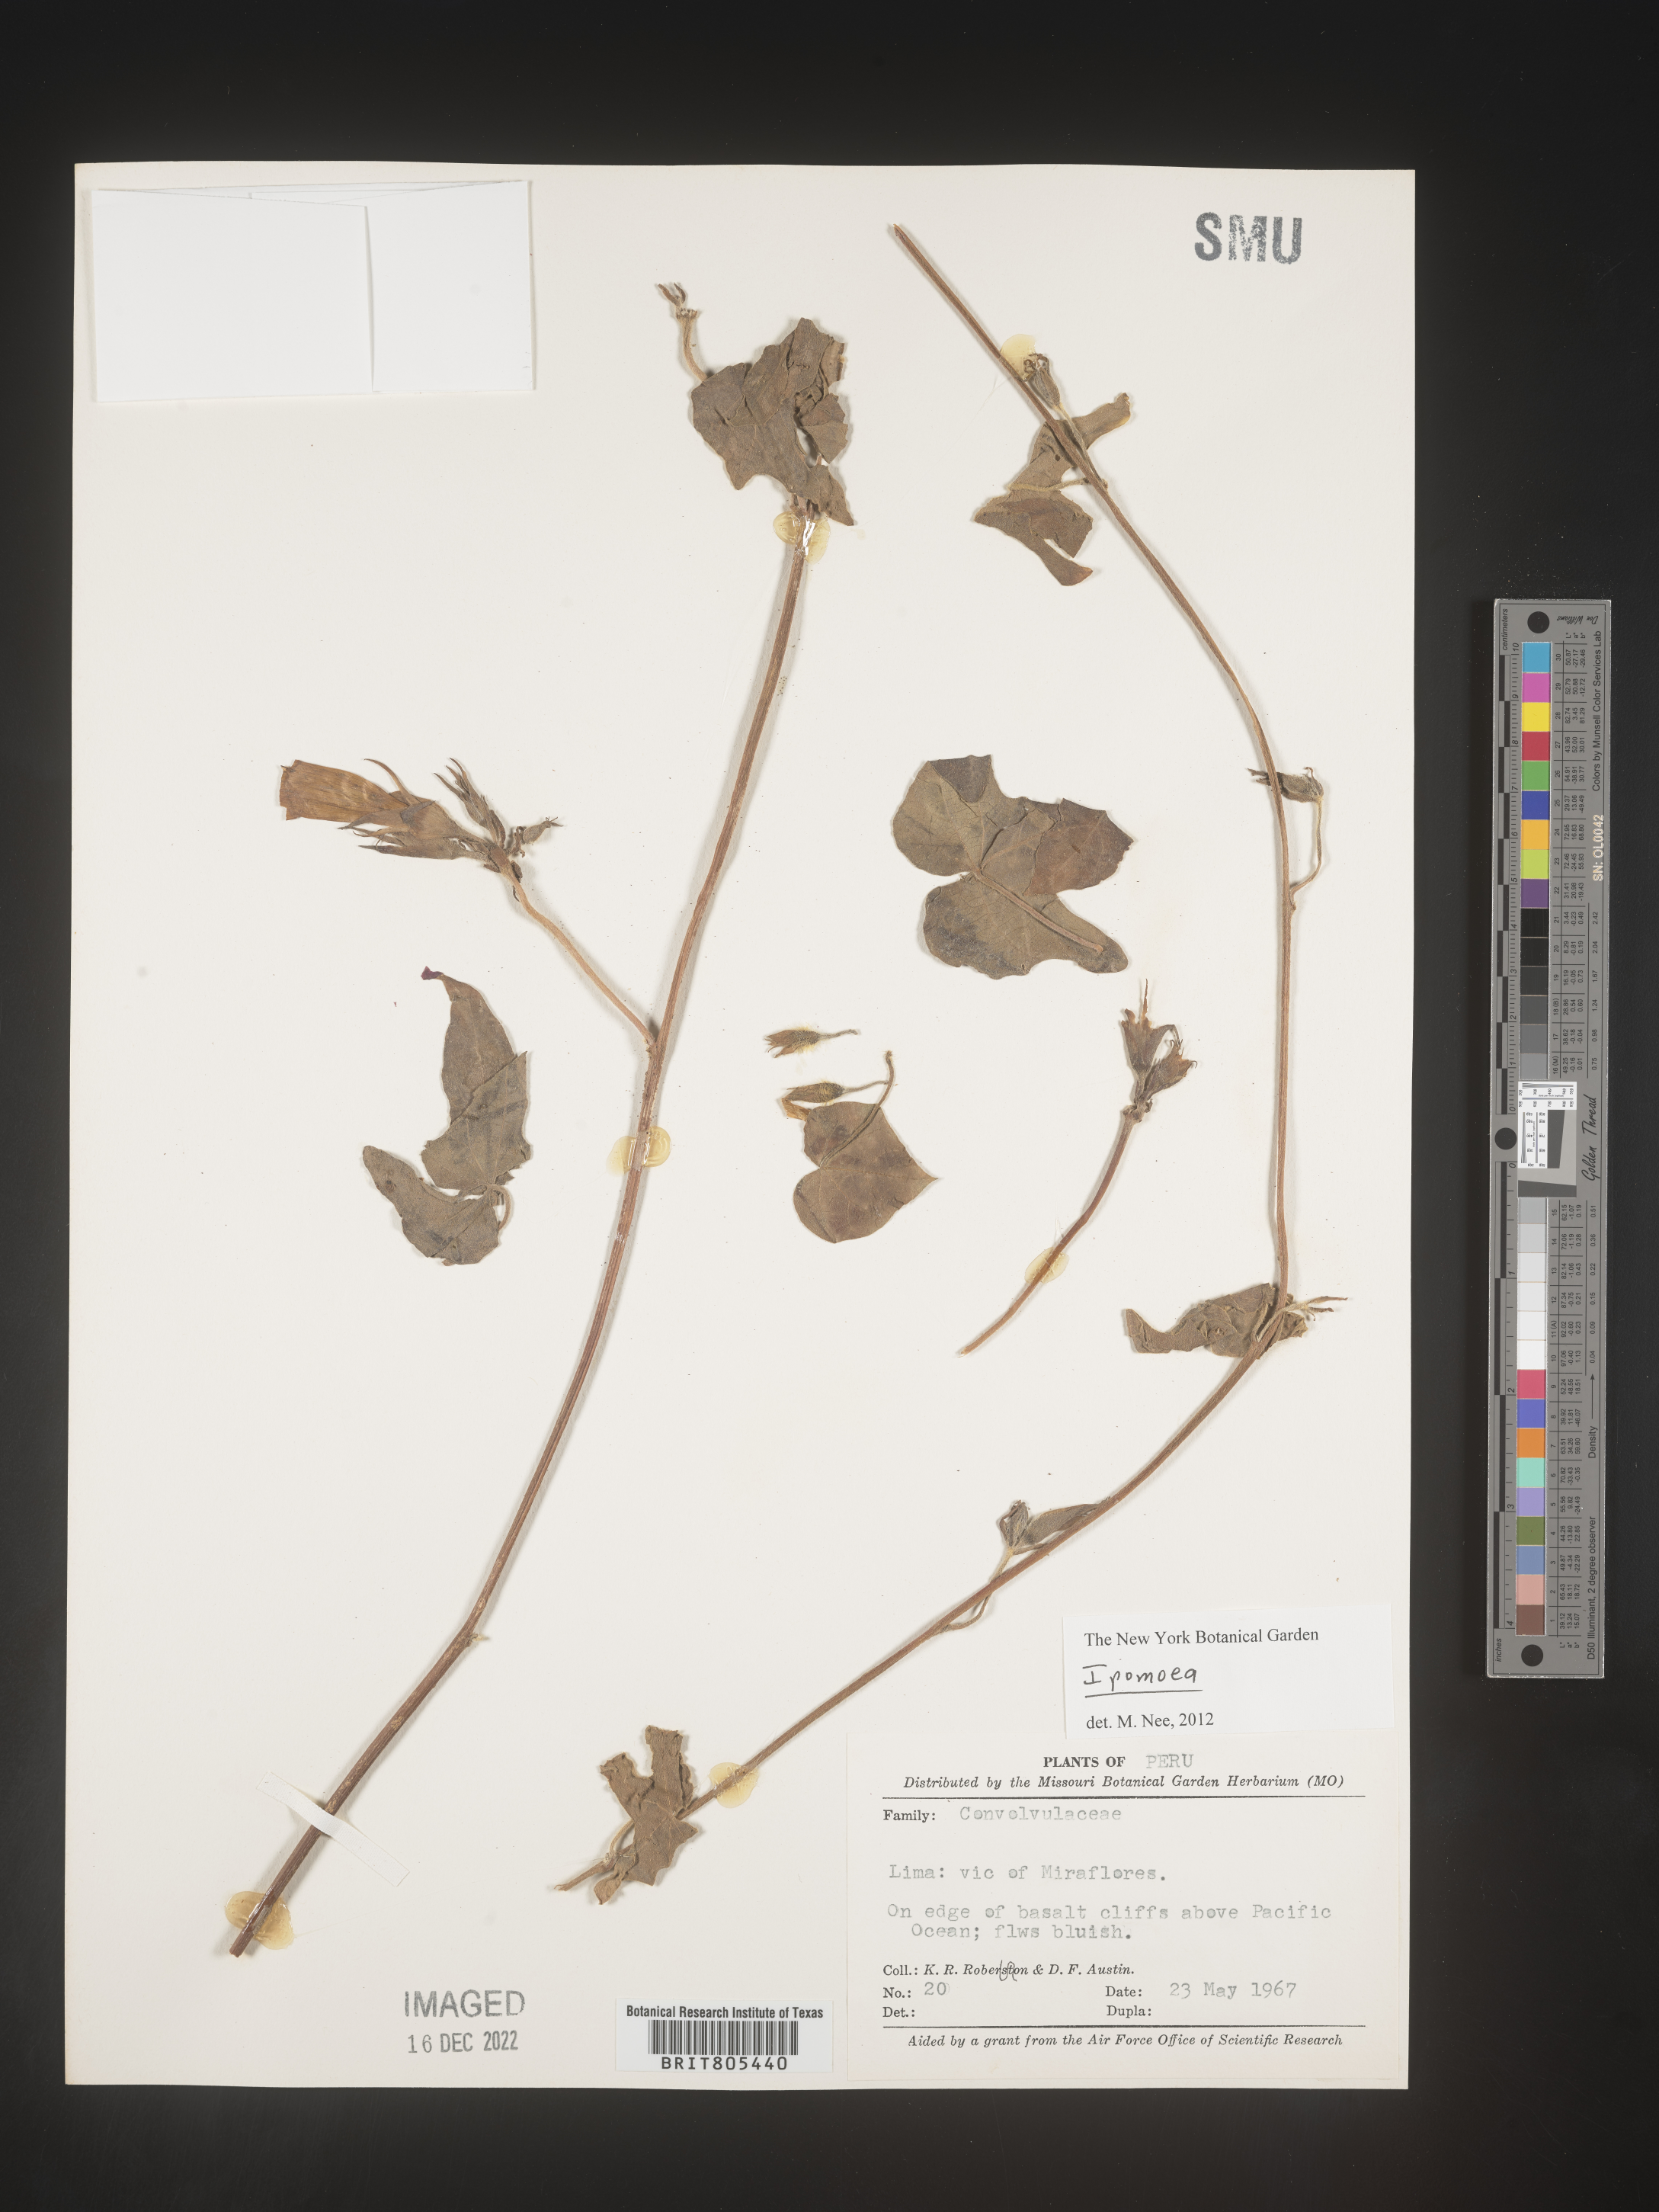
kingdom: Plantae
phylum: Tracheophyta
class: Magnoliopsida
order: Solanales
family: Convolvulaceae
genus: Ipomoea
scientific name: Ipomoea
